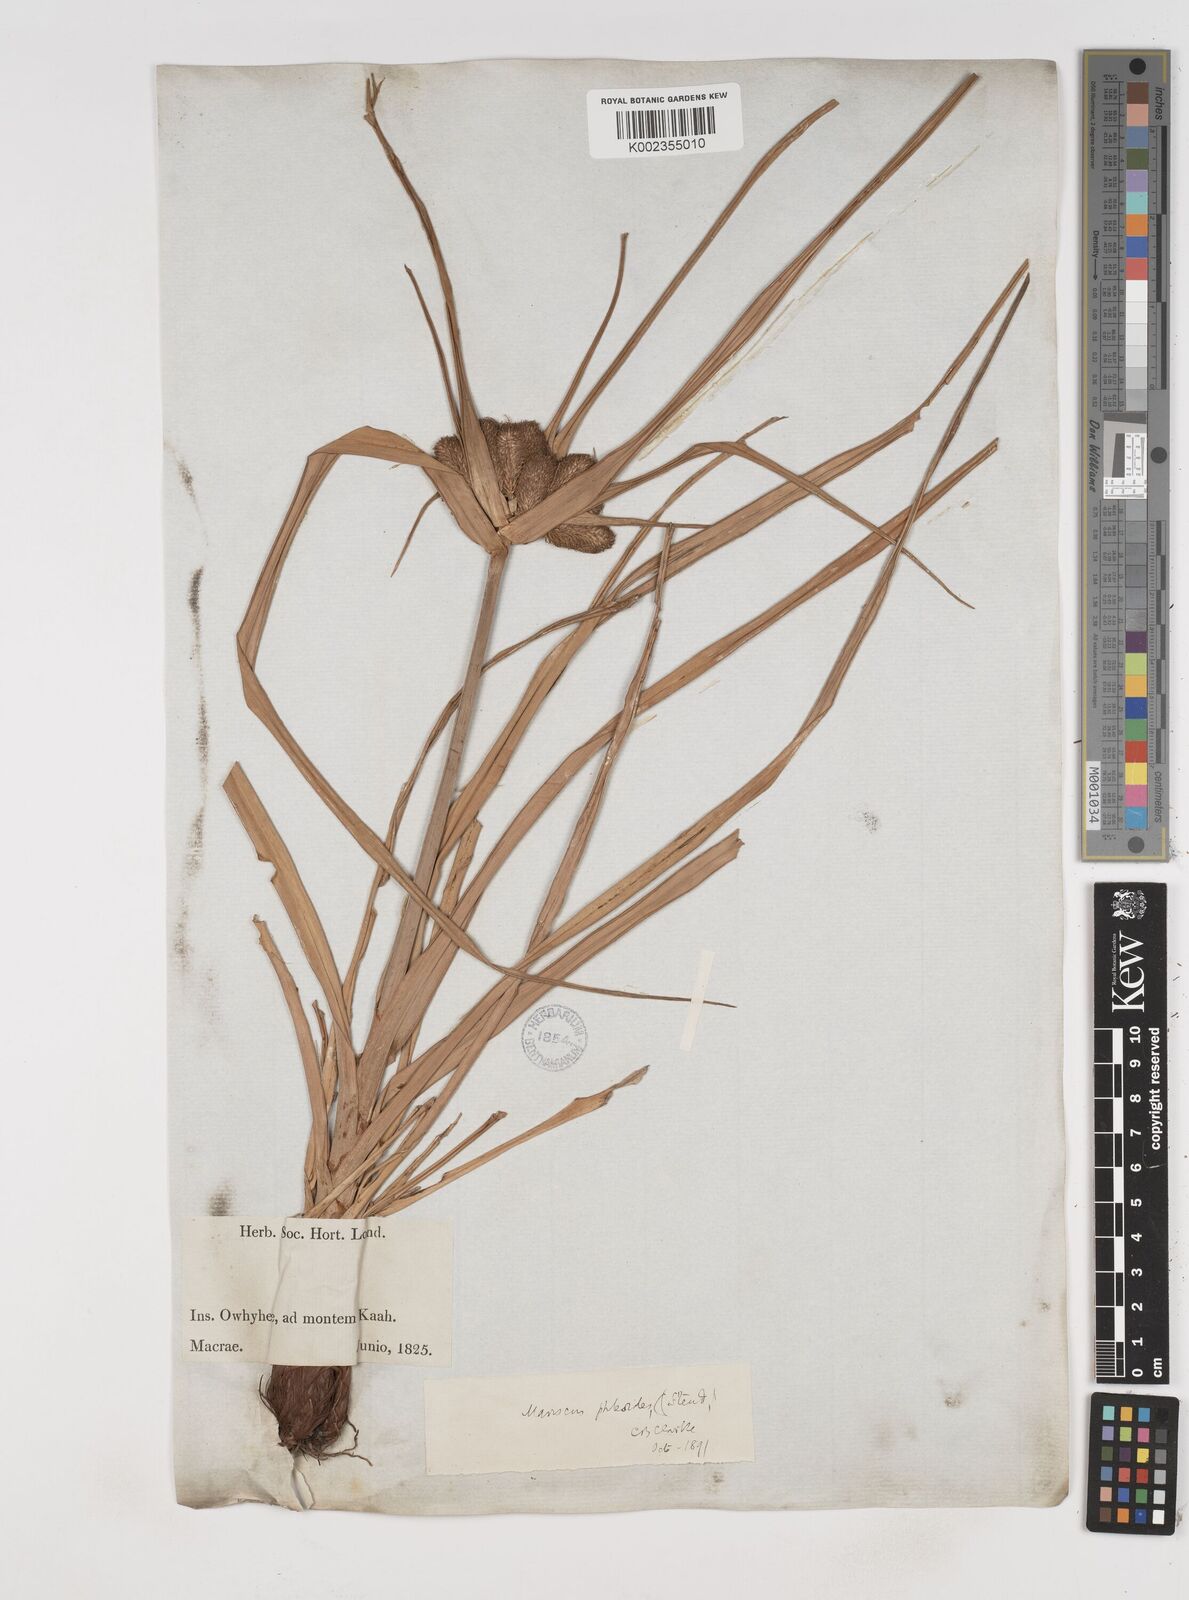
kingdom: Plantae
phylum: Tracheophyta
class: Liliopsida
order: Poales
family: Cyperaceae
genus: Cyperus
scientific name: Cyperus phleoides
